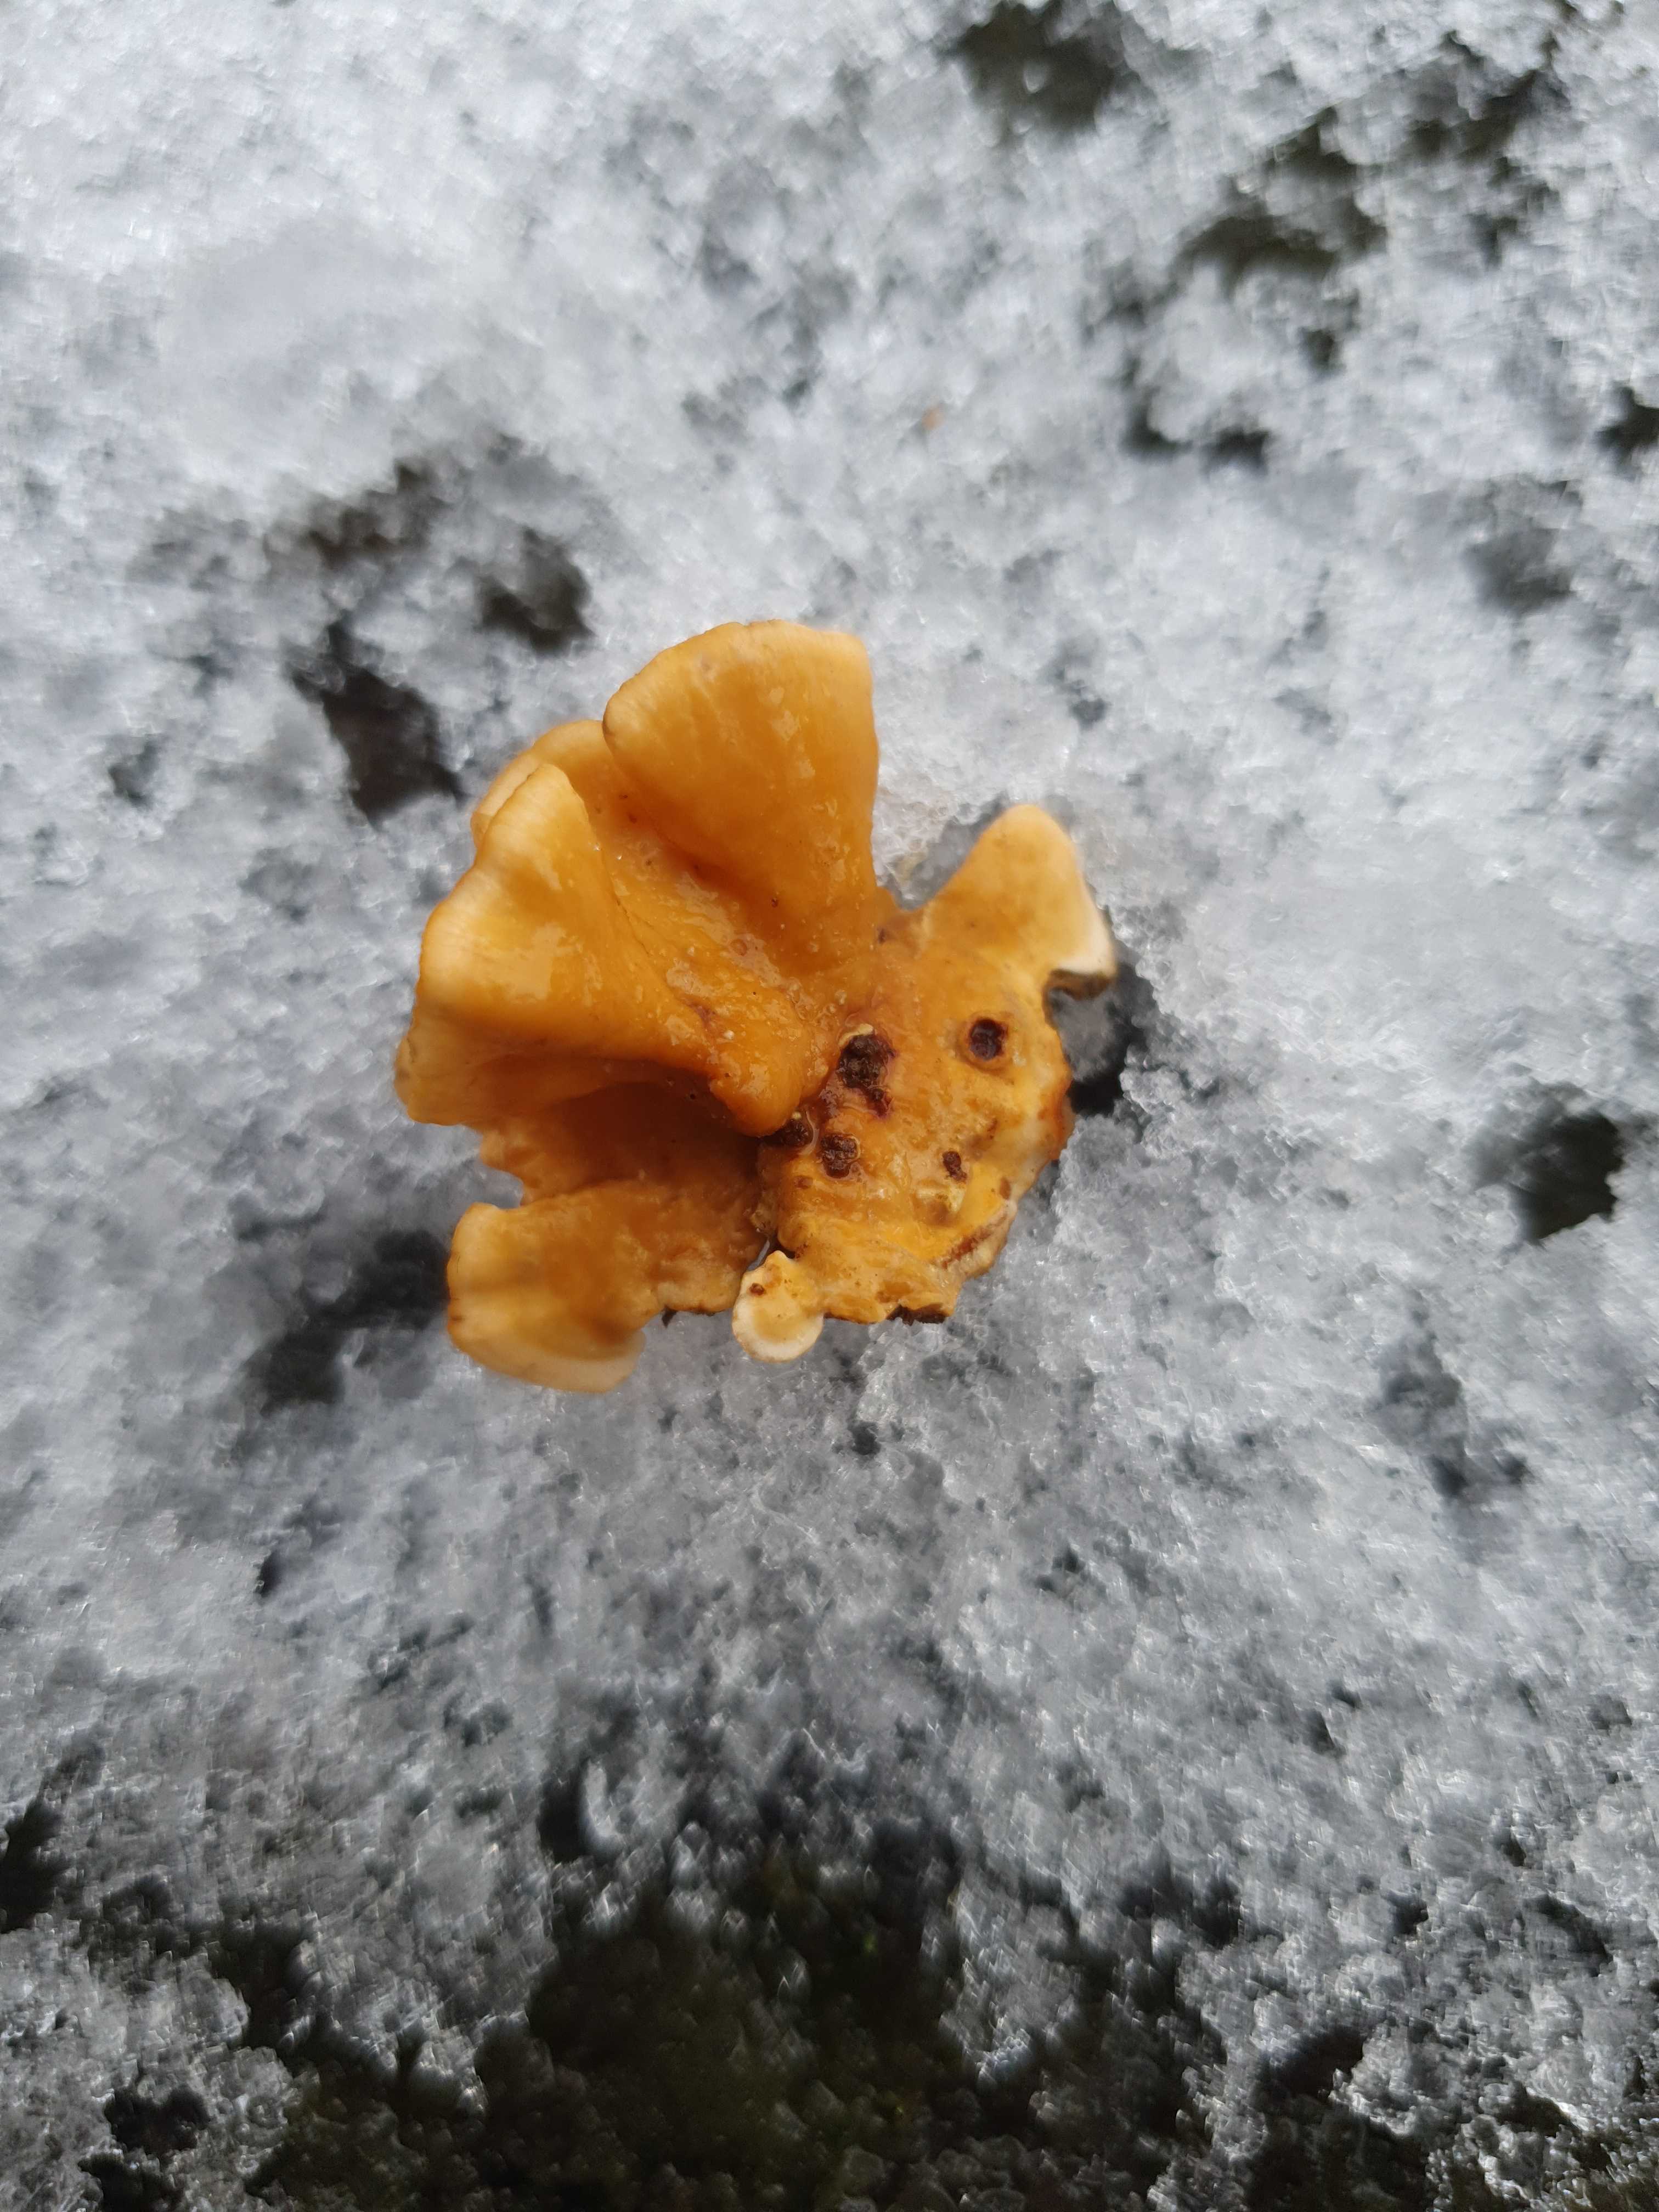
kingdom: Fungi
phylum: Basidiomycota
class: Agaricomycetes
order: Russulales
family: Stereaceae
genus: Stereum
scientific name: Stereum hirsutum
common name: håret lædersvamp
